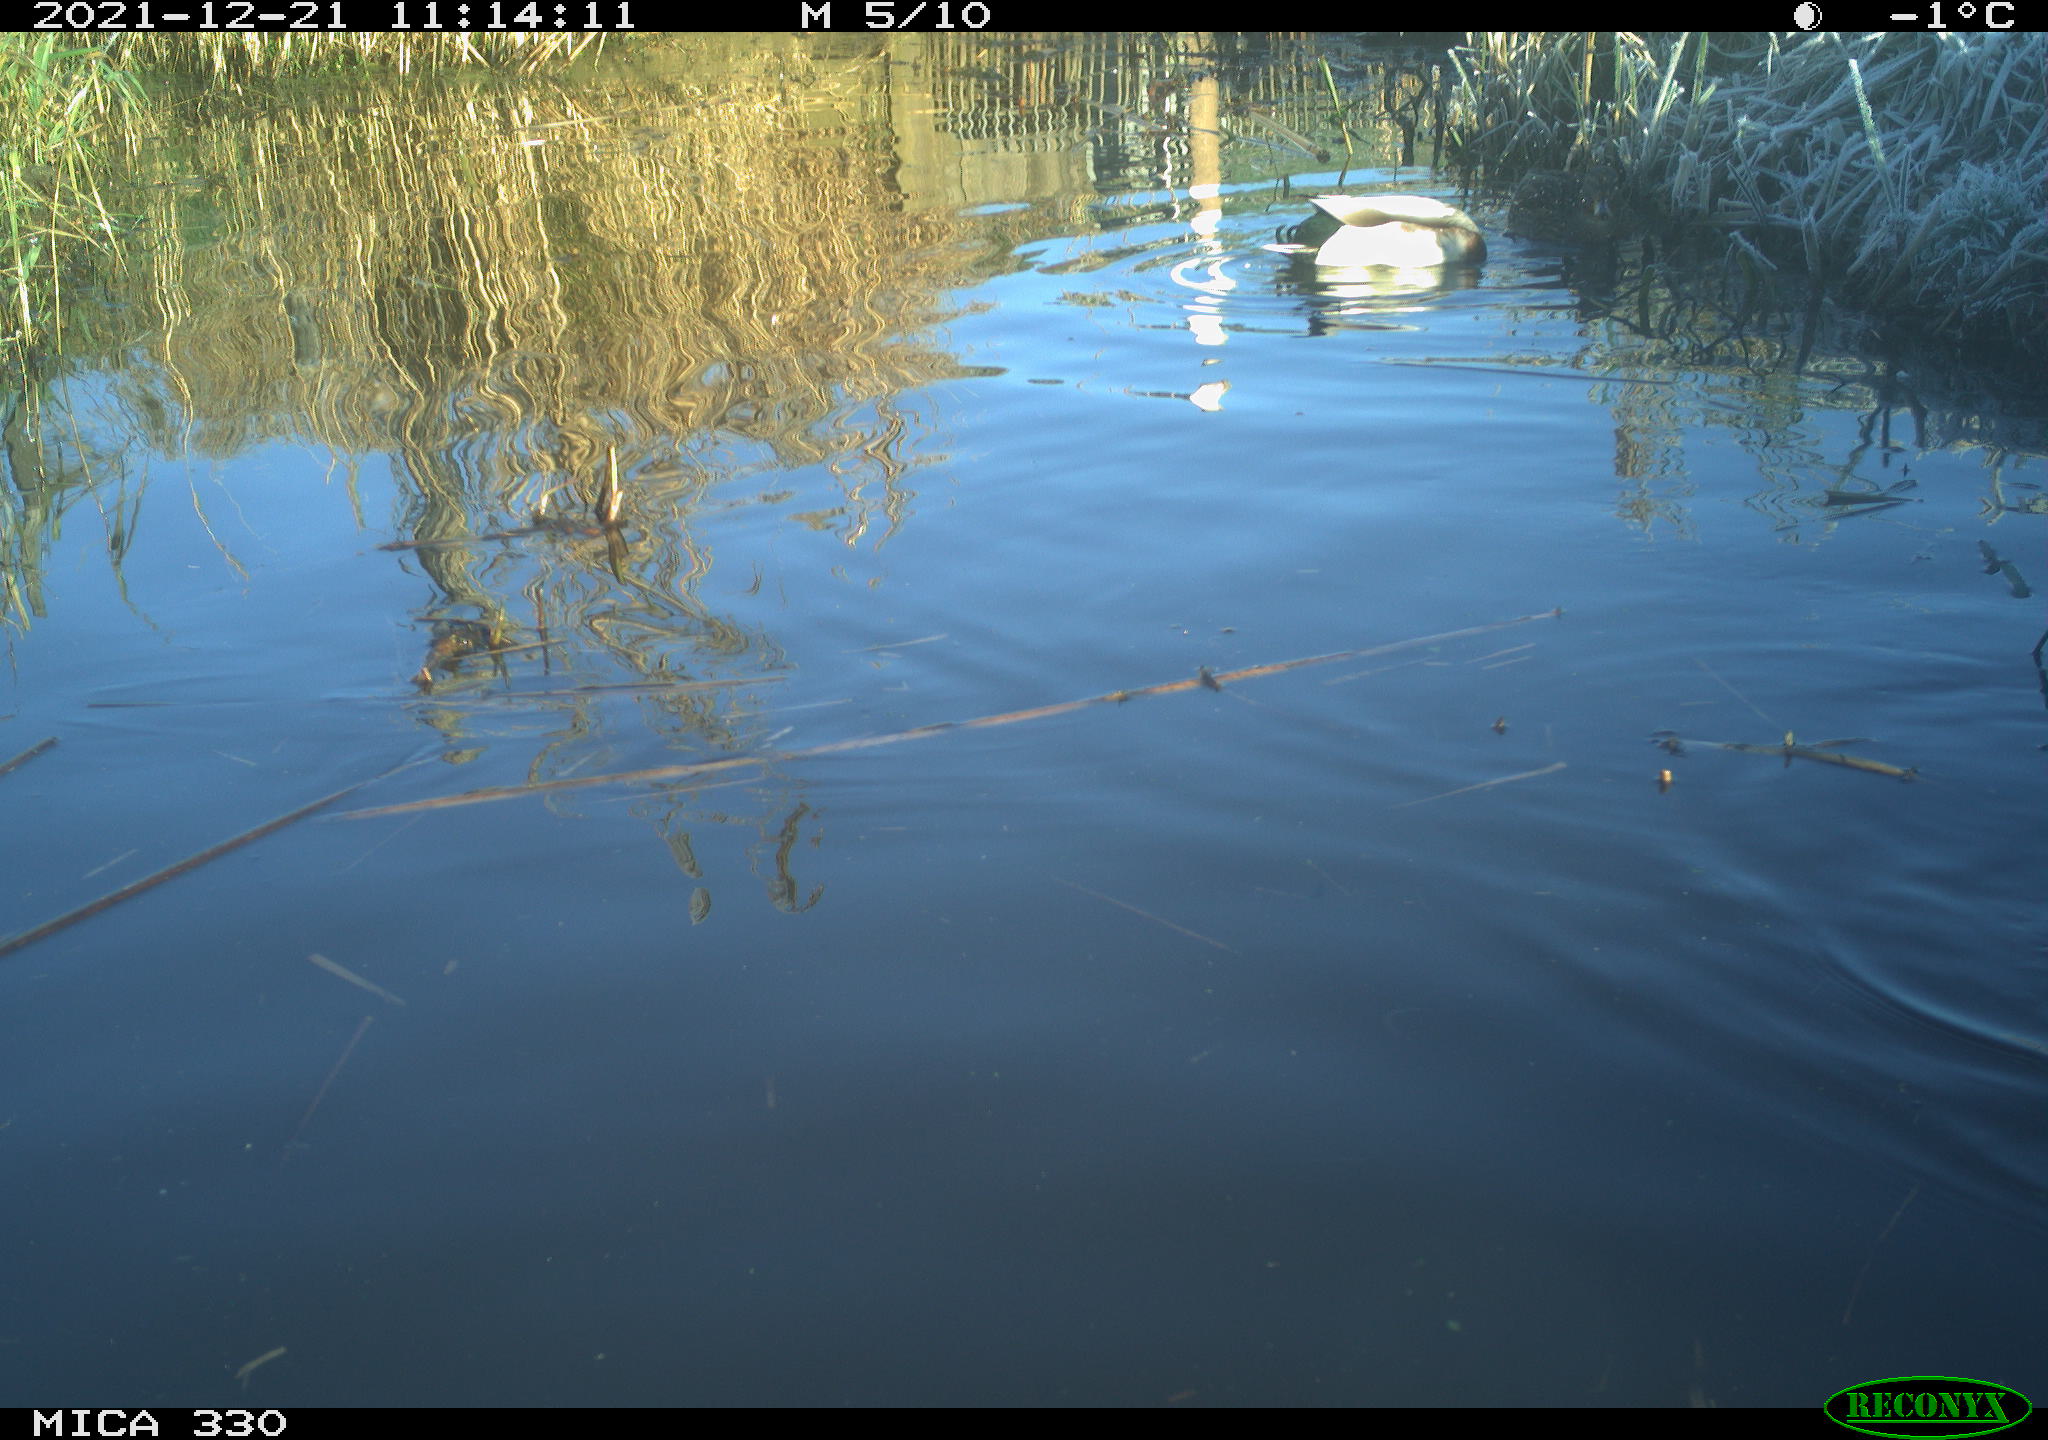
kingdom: Animalia
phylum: Chordata
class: Aves
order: Anseriformes
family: Anatidae
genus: Anas
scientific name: Anas platyrhynchos
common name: Mallard
